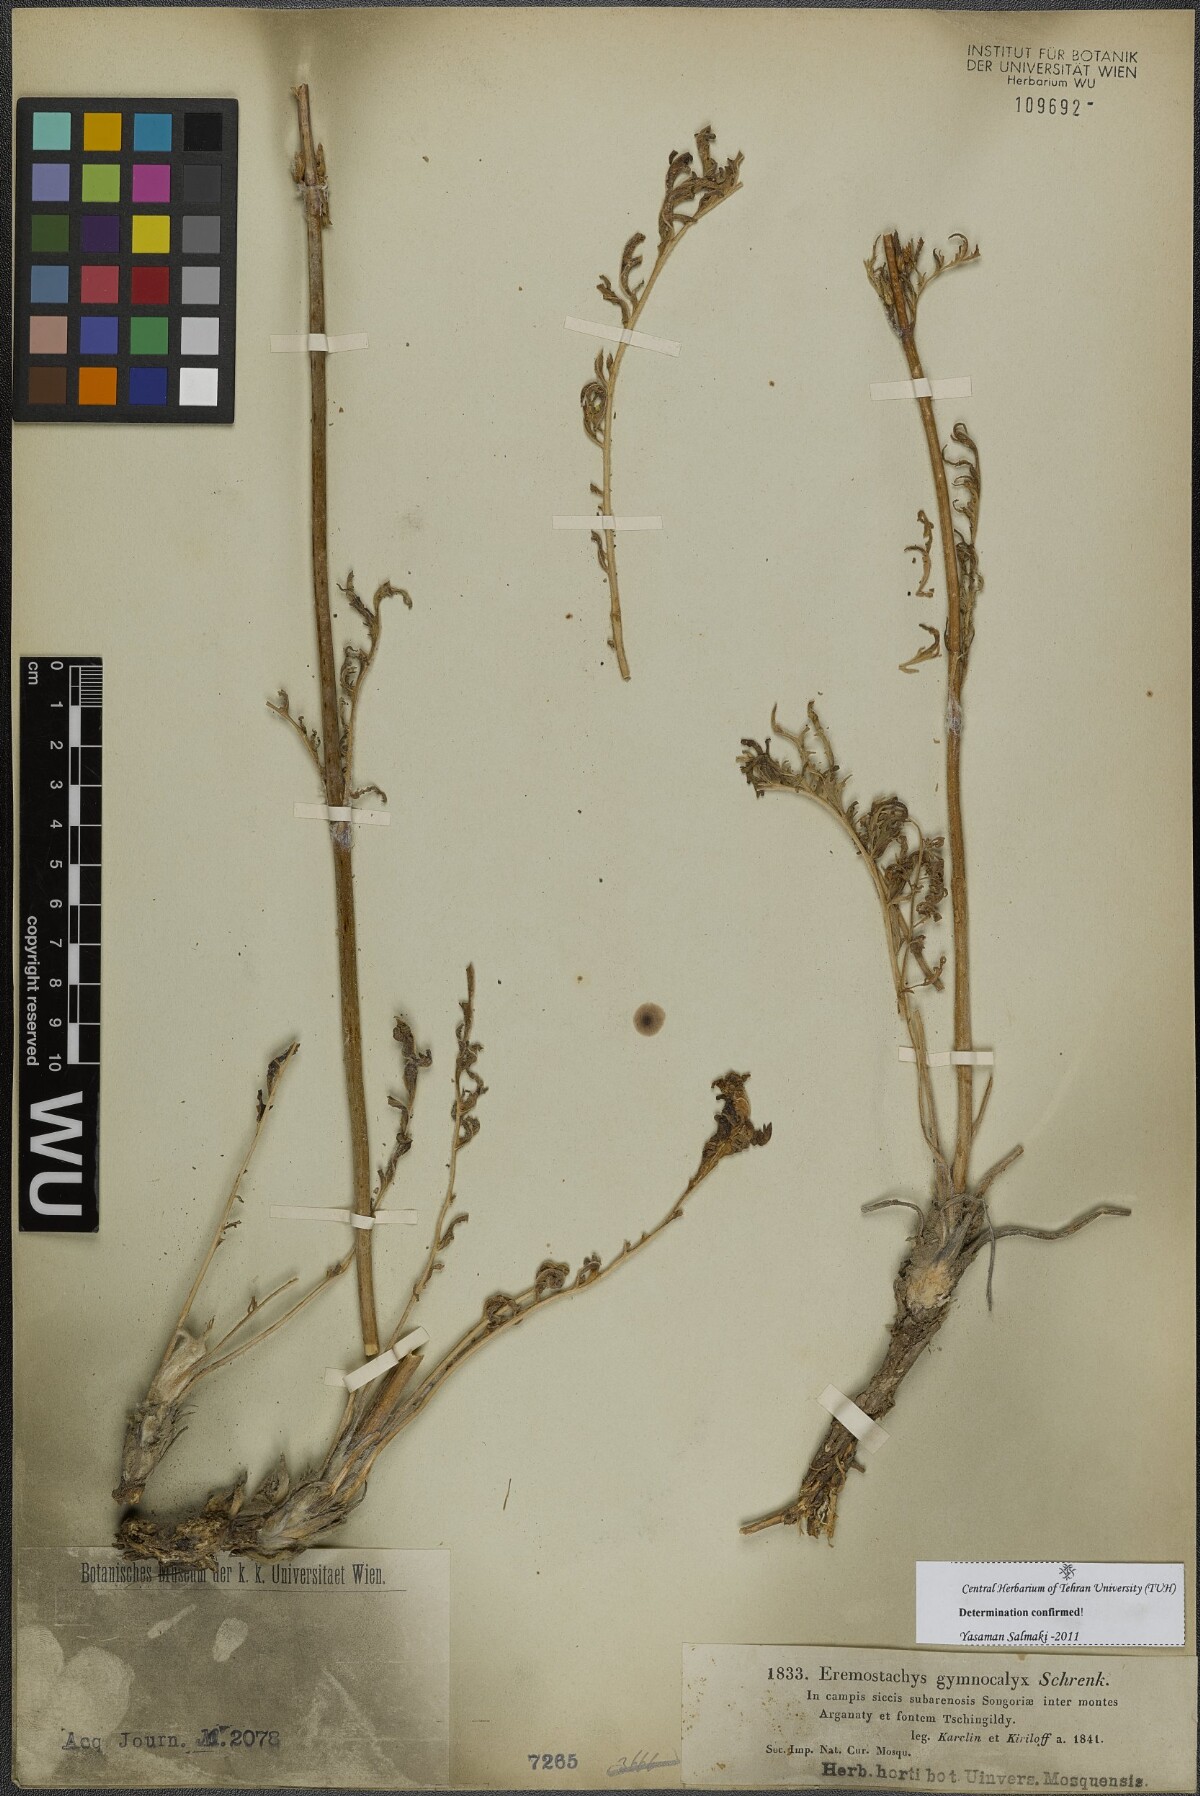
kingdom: Plantae
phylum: Tracheophyta
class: Magnoliopsida
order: Lamiales
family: Lamiaceae
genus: Phlomoides
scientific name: Phlomoides gymnocalyx
